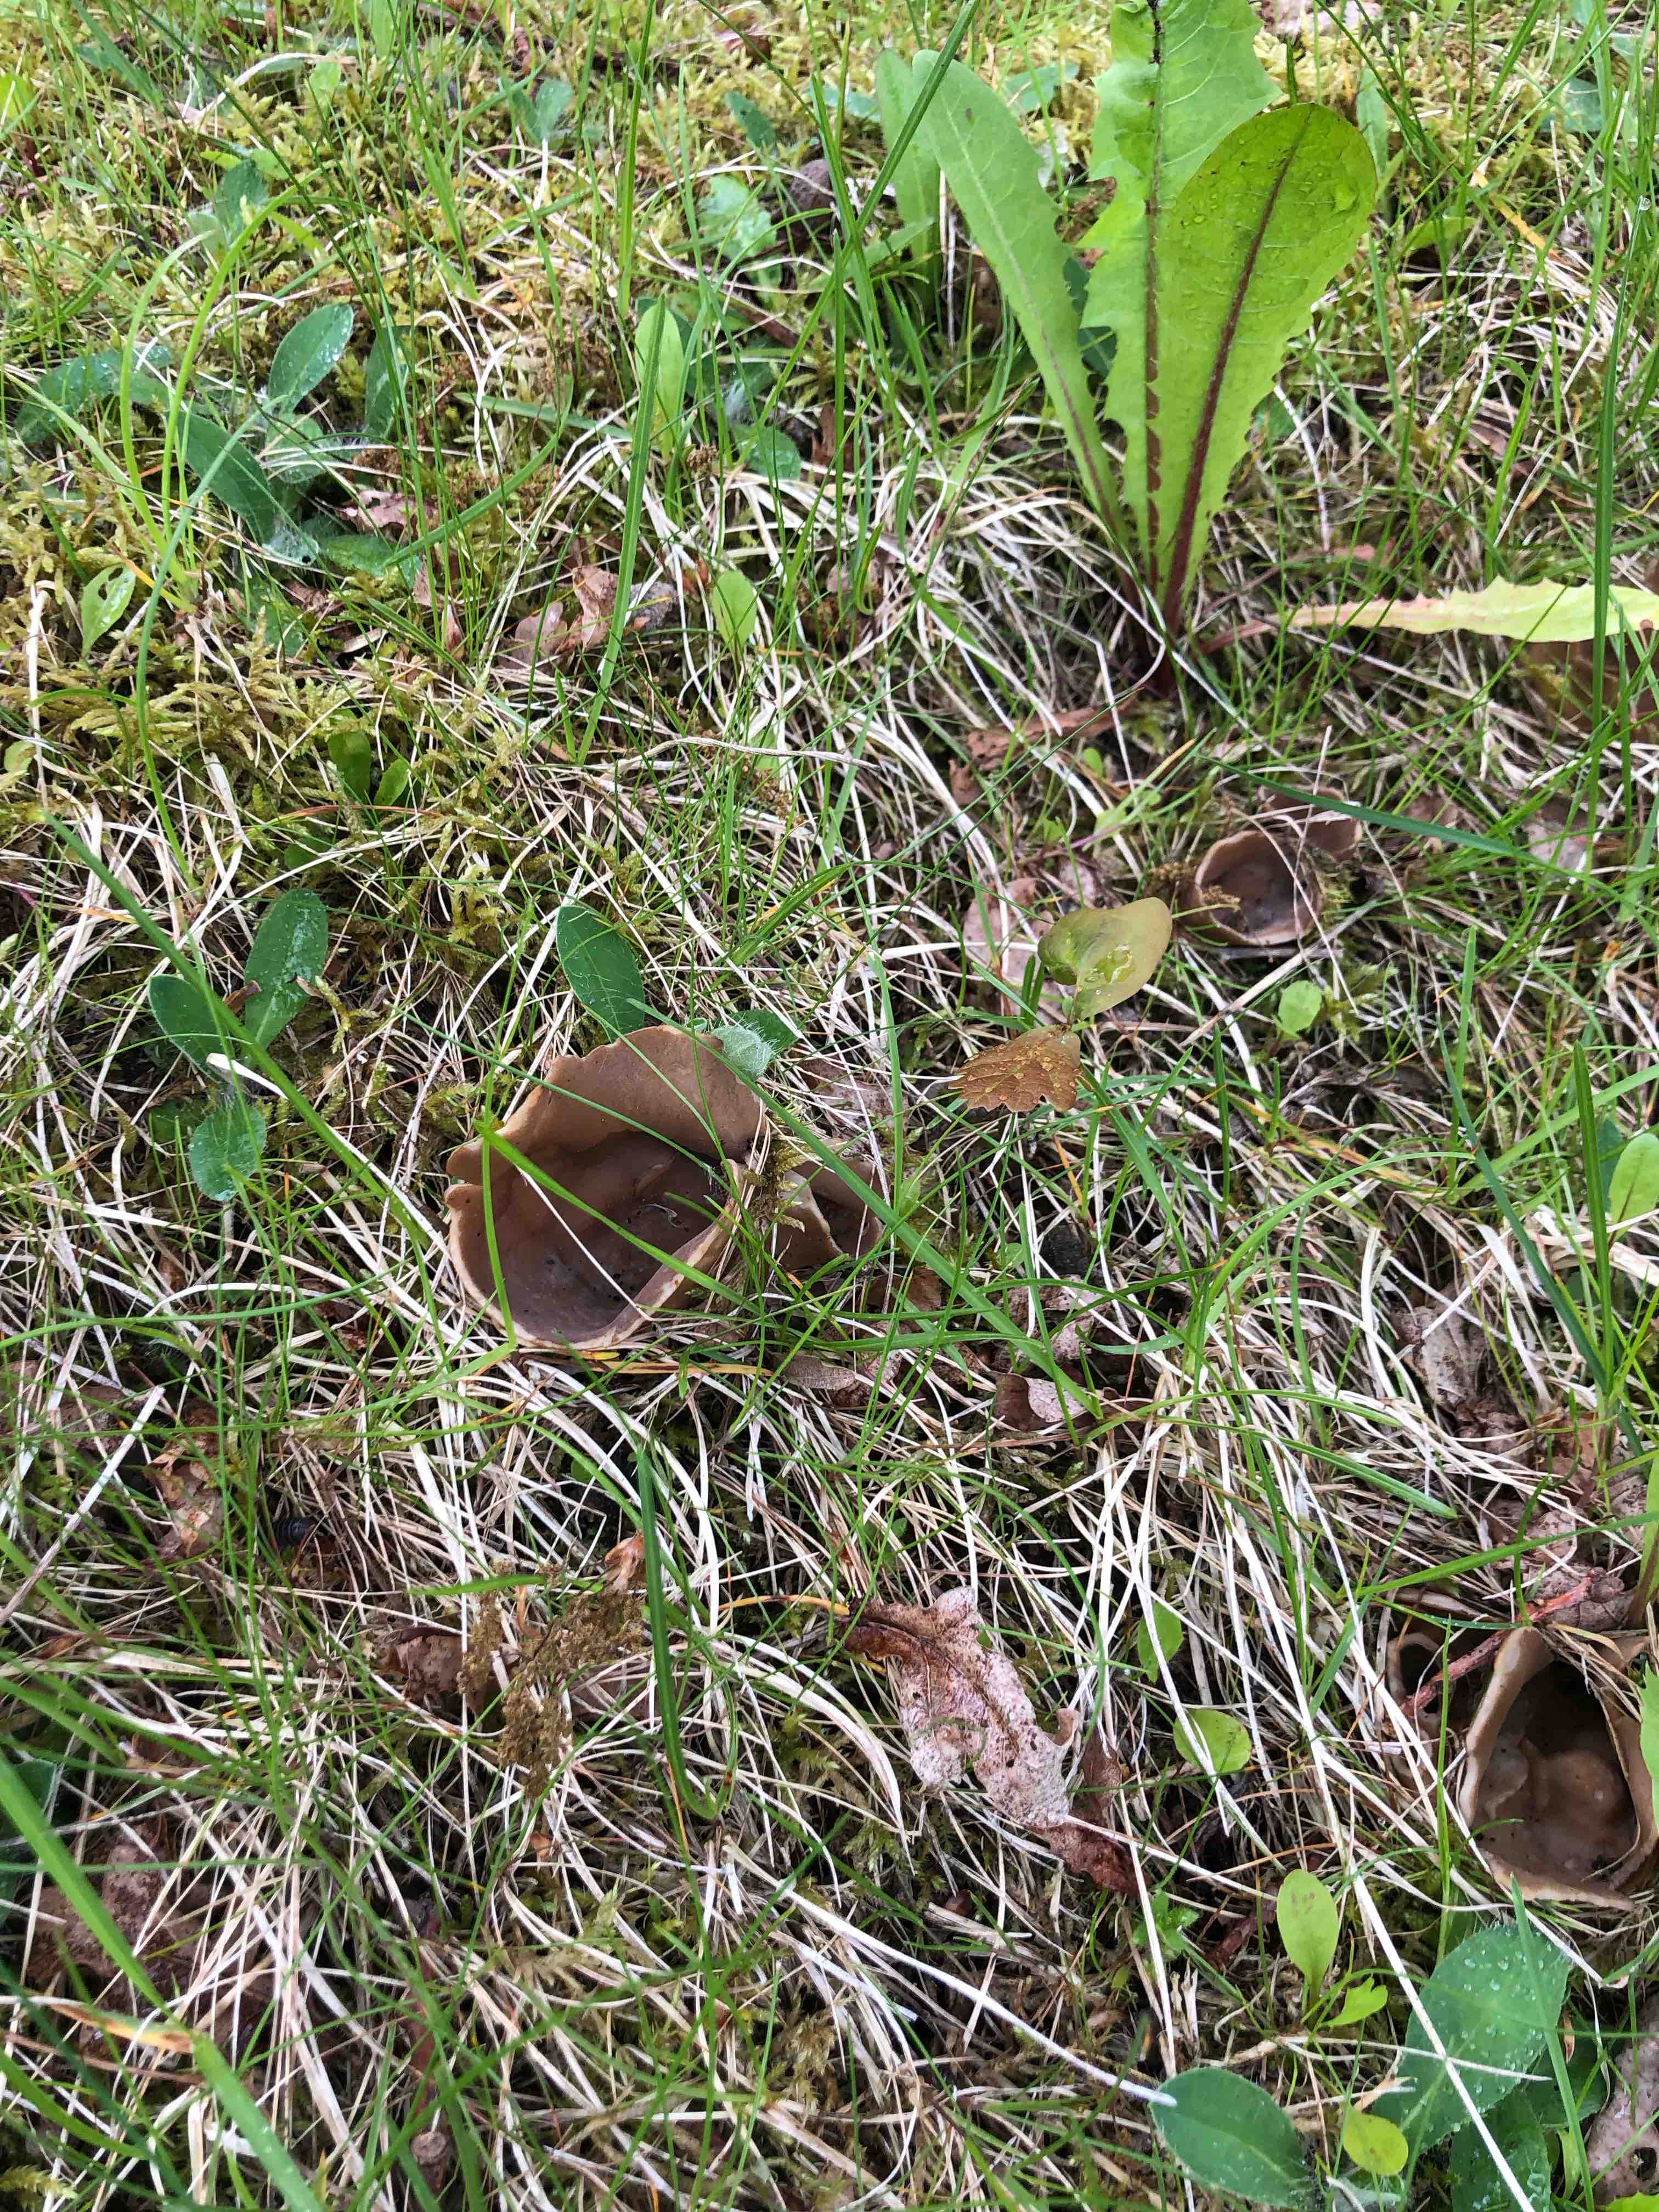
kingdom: Fungi
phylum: Ascomycota
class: Pezizomycetes
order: Pezizales
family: Helvellaceae
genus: Helvella
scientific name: Helvella acetabulum
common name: pokal-foldhat
